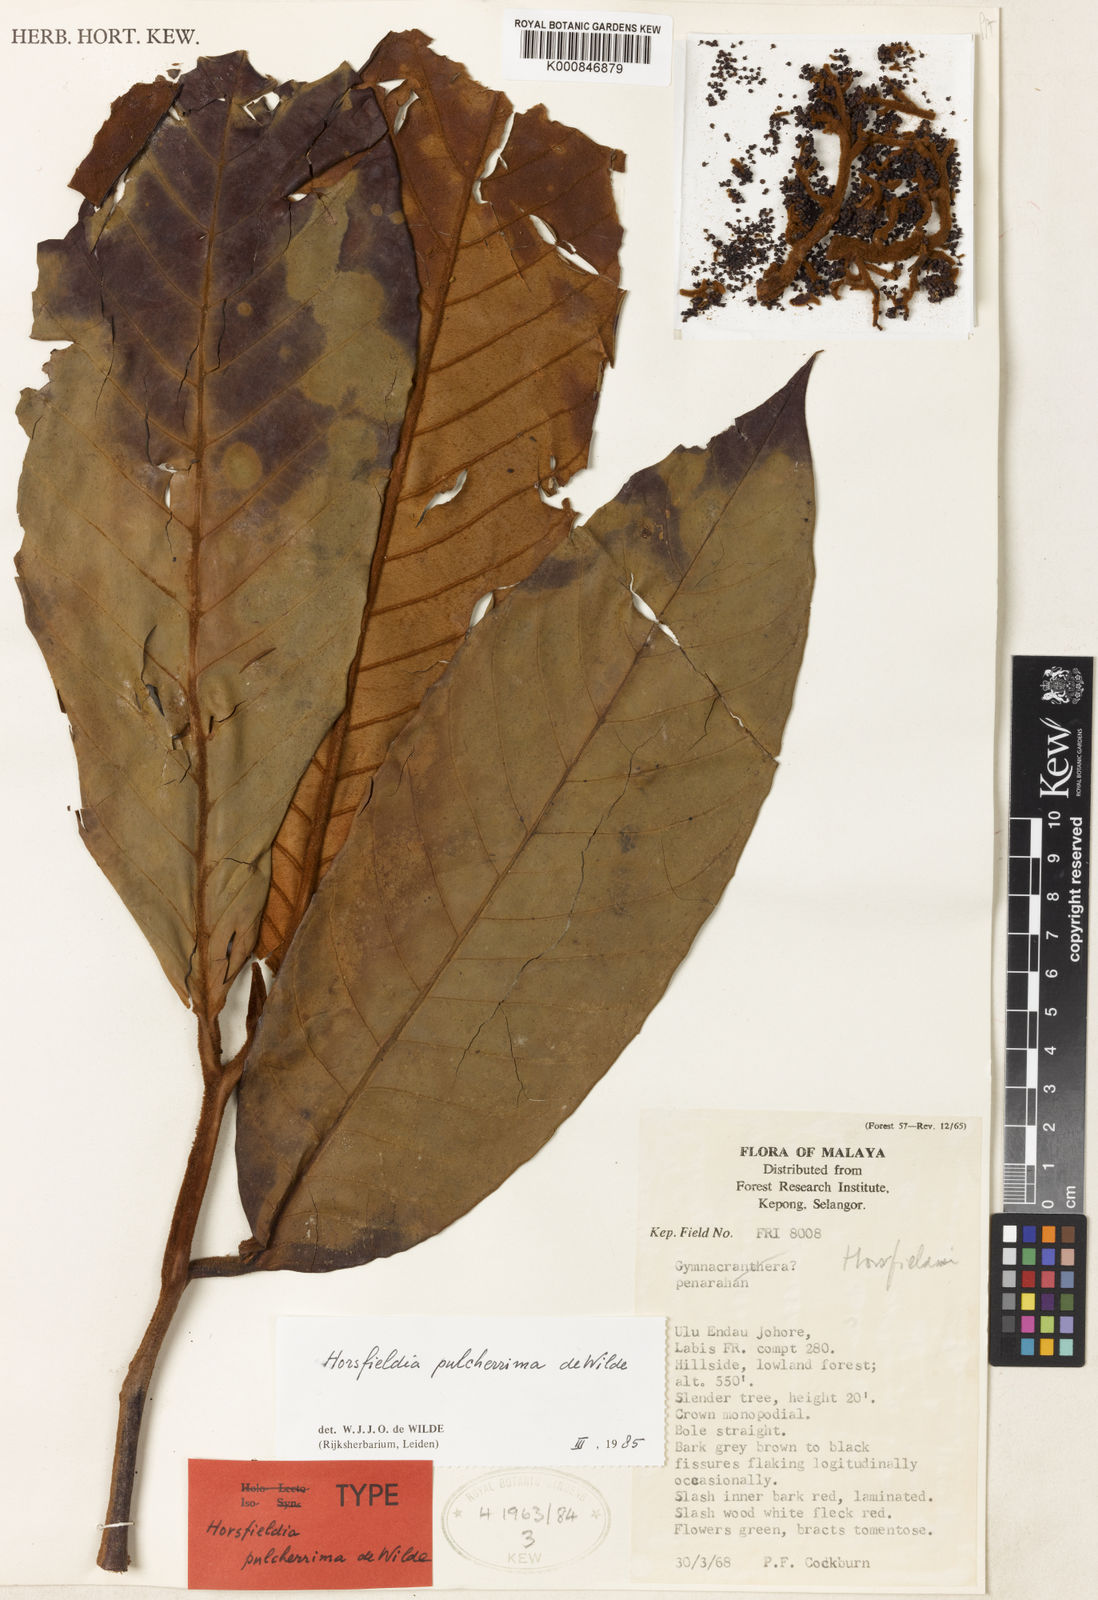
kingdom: Plantae
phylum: Tracheophyta
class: Magnoliopsida
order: Magnoliales
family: Myristicaceae
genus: Horsfieldia
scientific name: Horsfieldia pulcherrima
